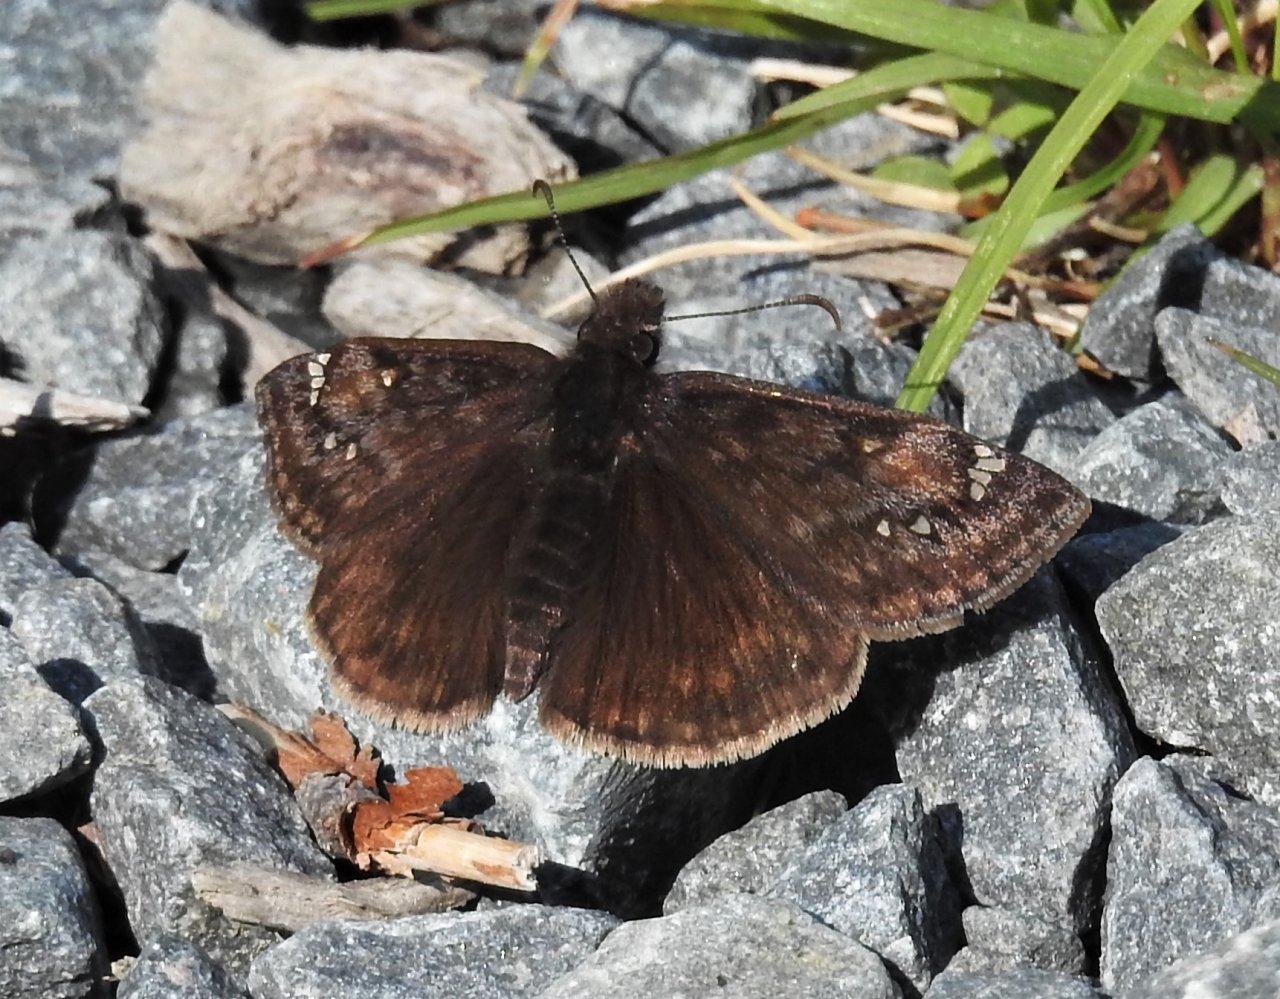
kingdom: Animalia
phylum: Arthropoda
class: Insecta
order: Lepidoptera
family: Hesperiidae
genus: Gesta
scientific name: Gesta
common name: Juvenal's Duskywing
